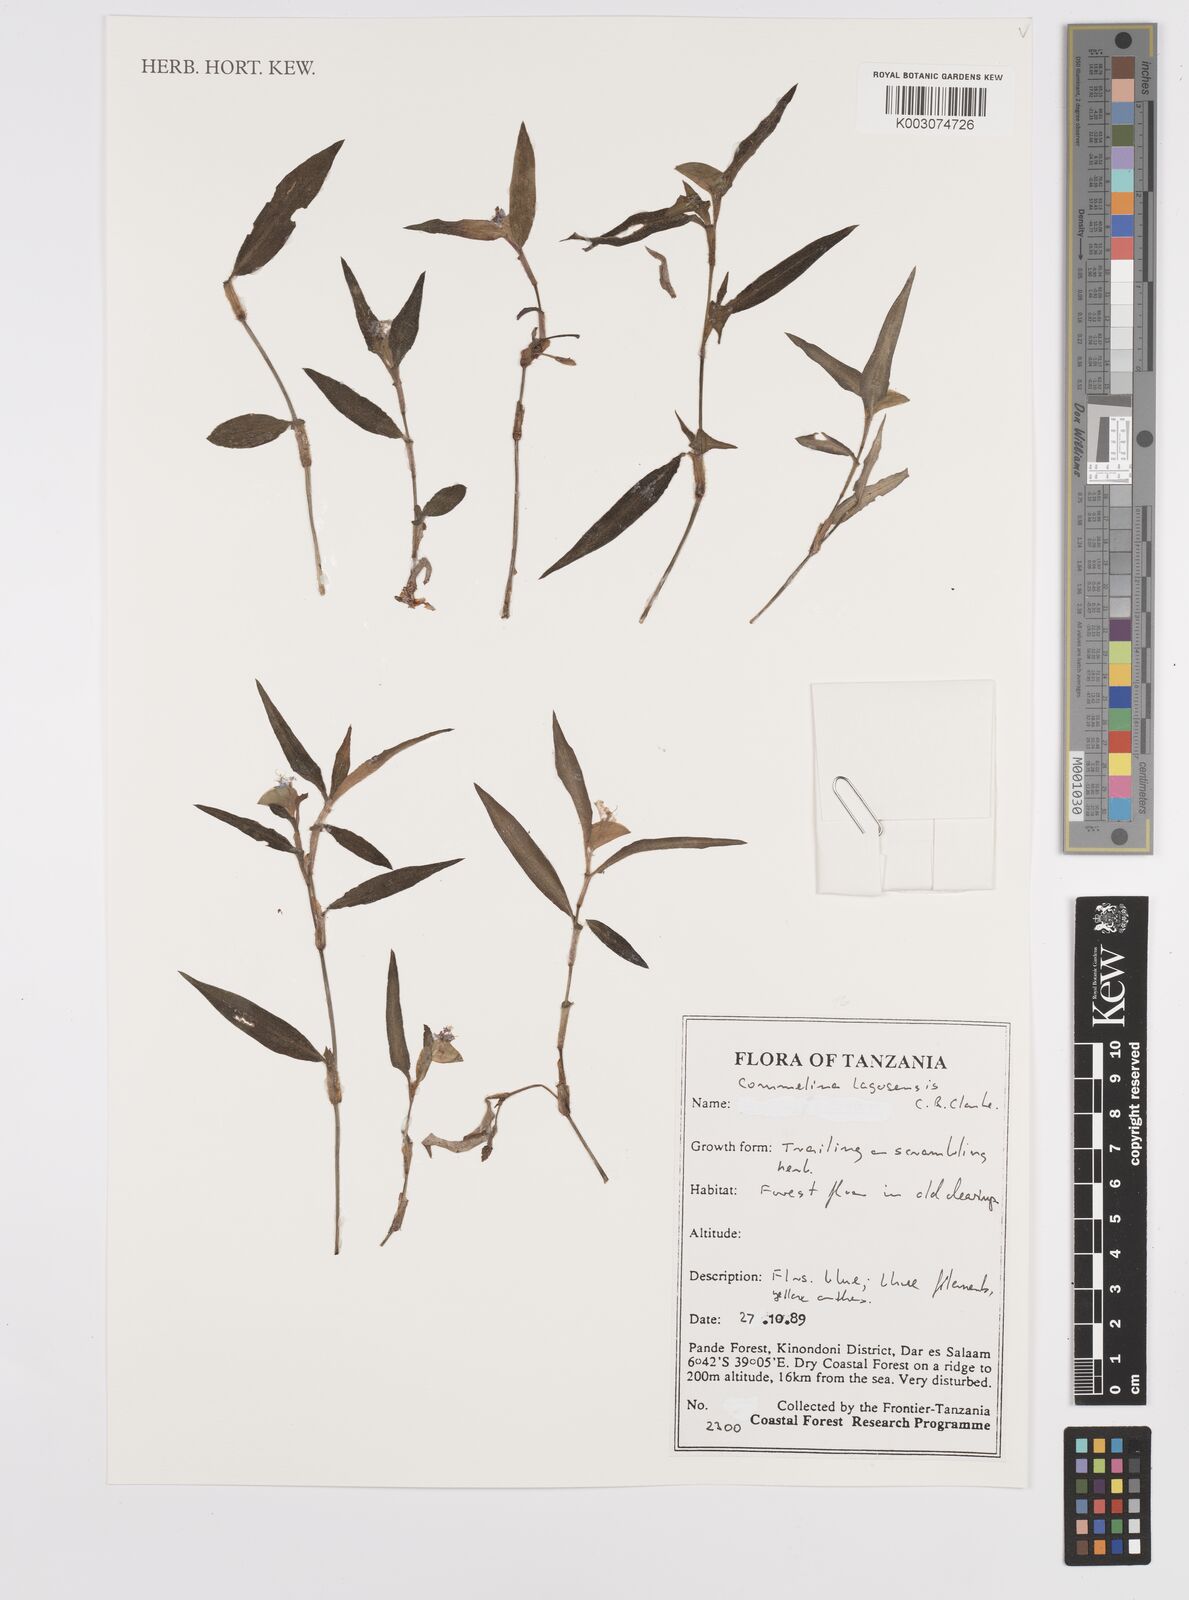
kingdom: Plantae
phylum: Tracheophyta
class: Liliopsida
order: Commelinales
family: Commelinaceae
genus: Commelina
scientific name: Commelina bracteosa
